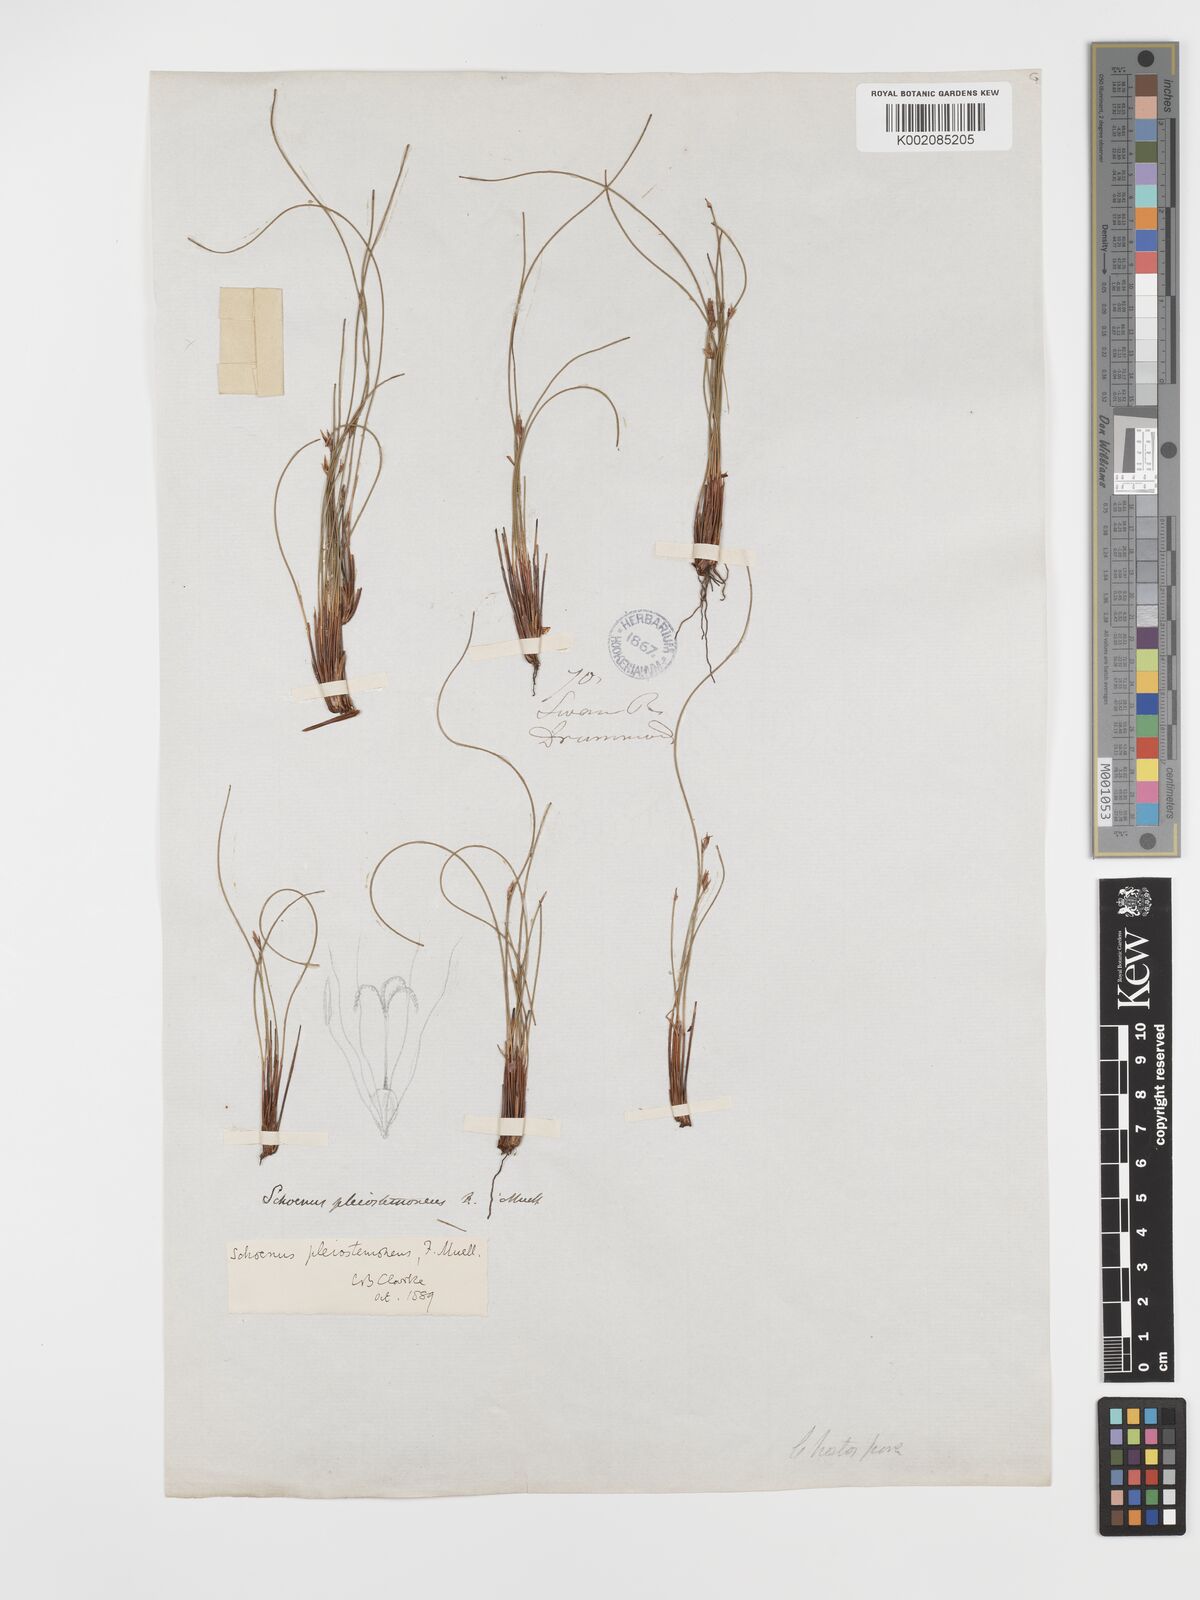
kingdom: Plantae
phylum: Tracheophyta
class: Liliopsida
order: Poales
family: Cyperaceae
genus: Schoenus
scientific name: Schoenus pleiostemoneus
